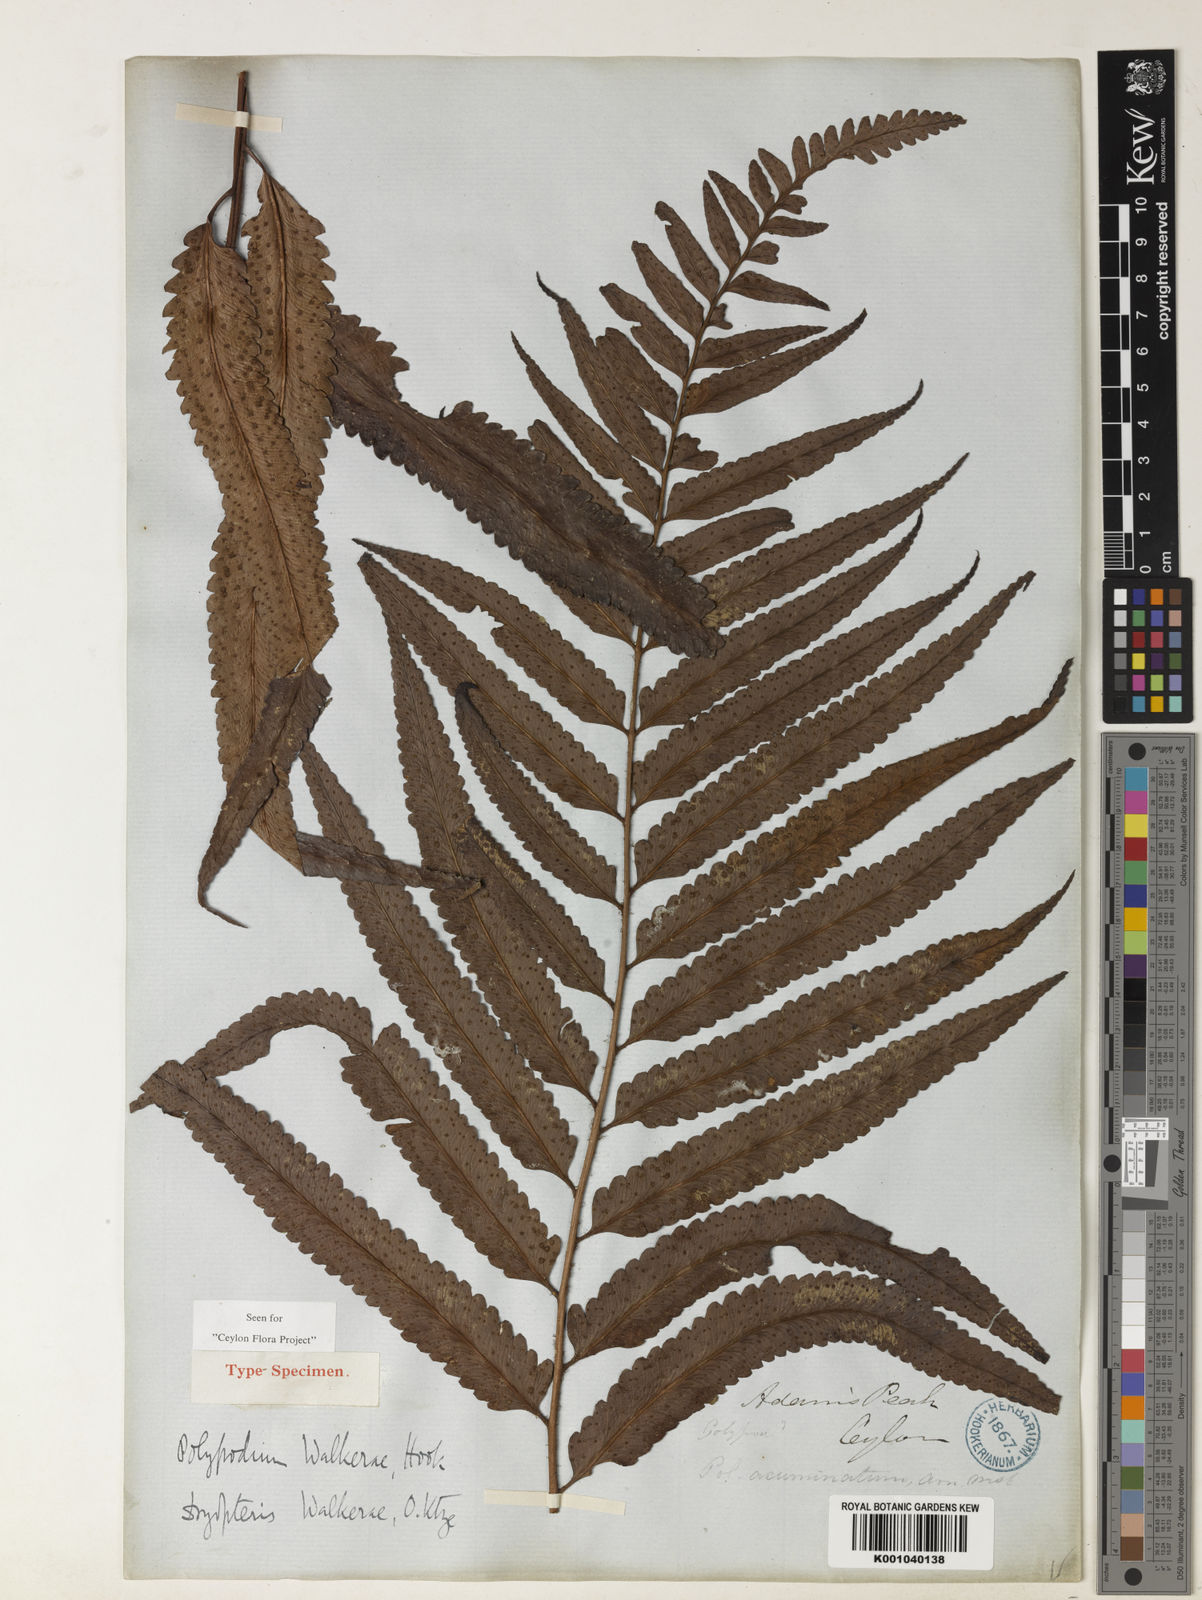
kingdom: Plantae
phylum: Tracheophyta
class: Polypodiopsida
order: Polypodiales
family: Dryopteridaceae
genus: Polystichum
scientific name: Polystichum walkerae
